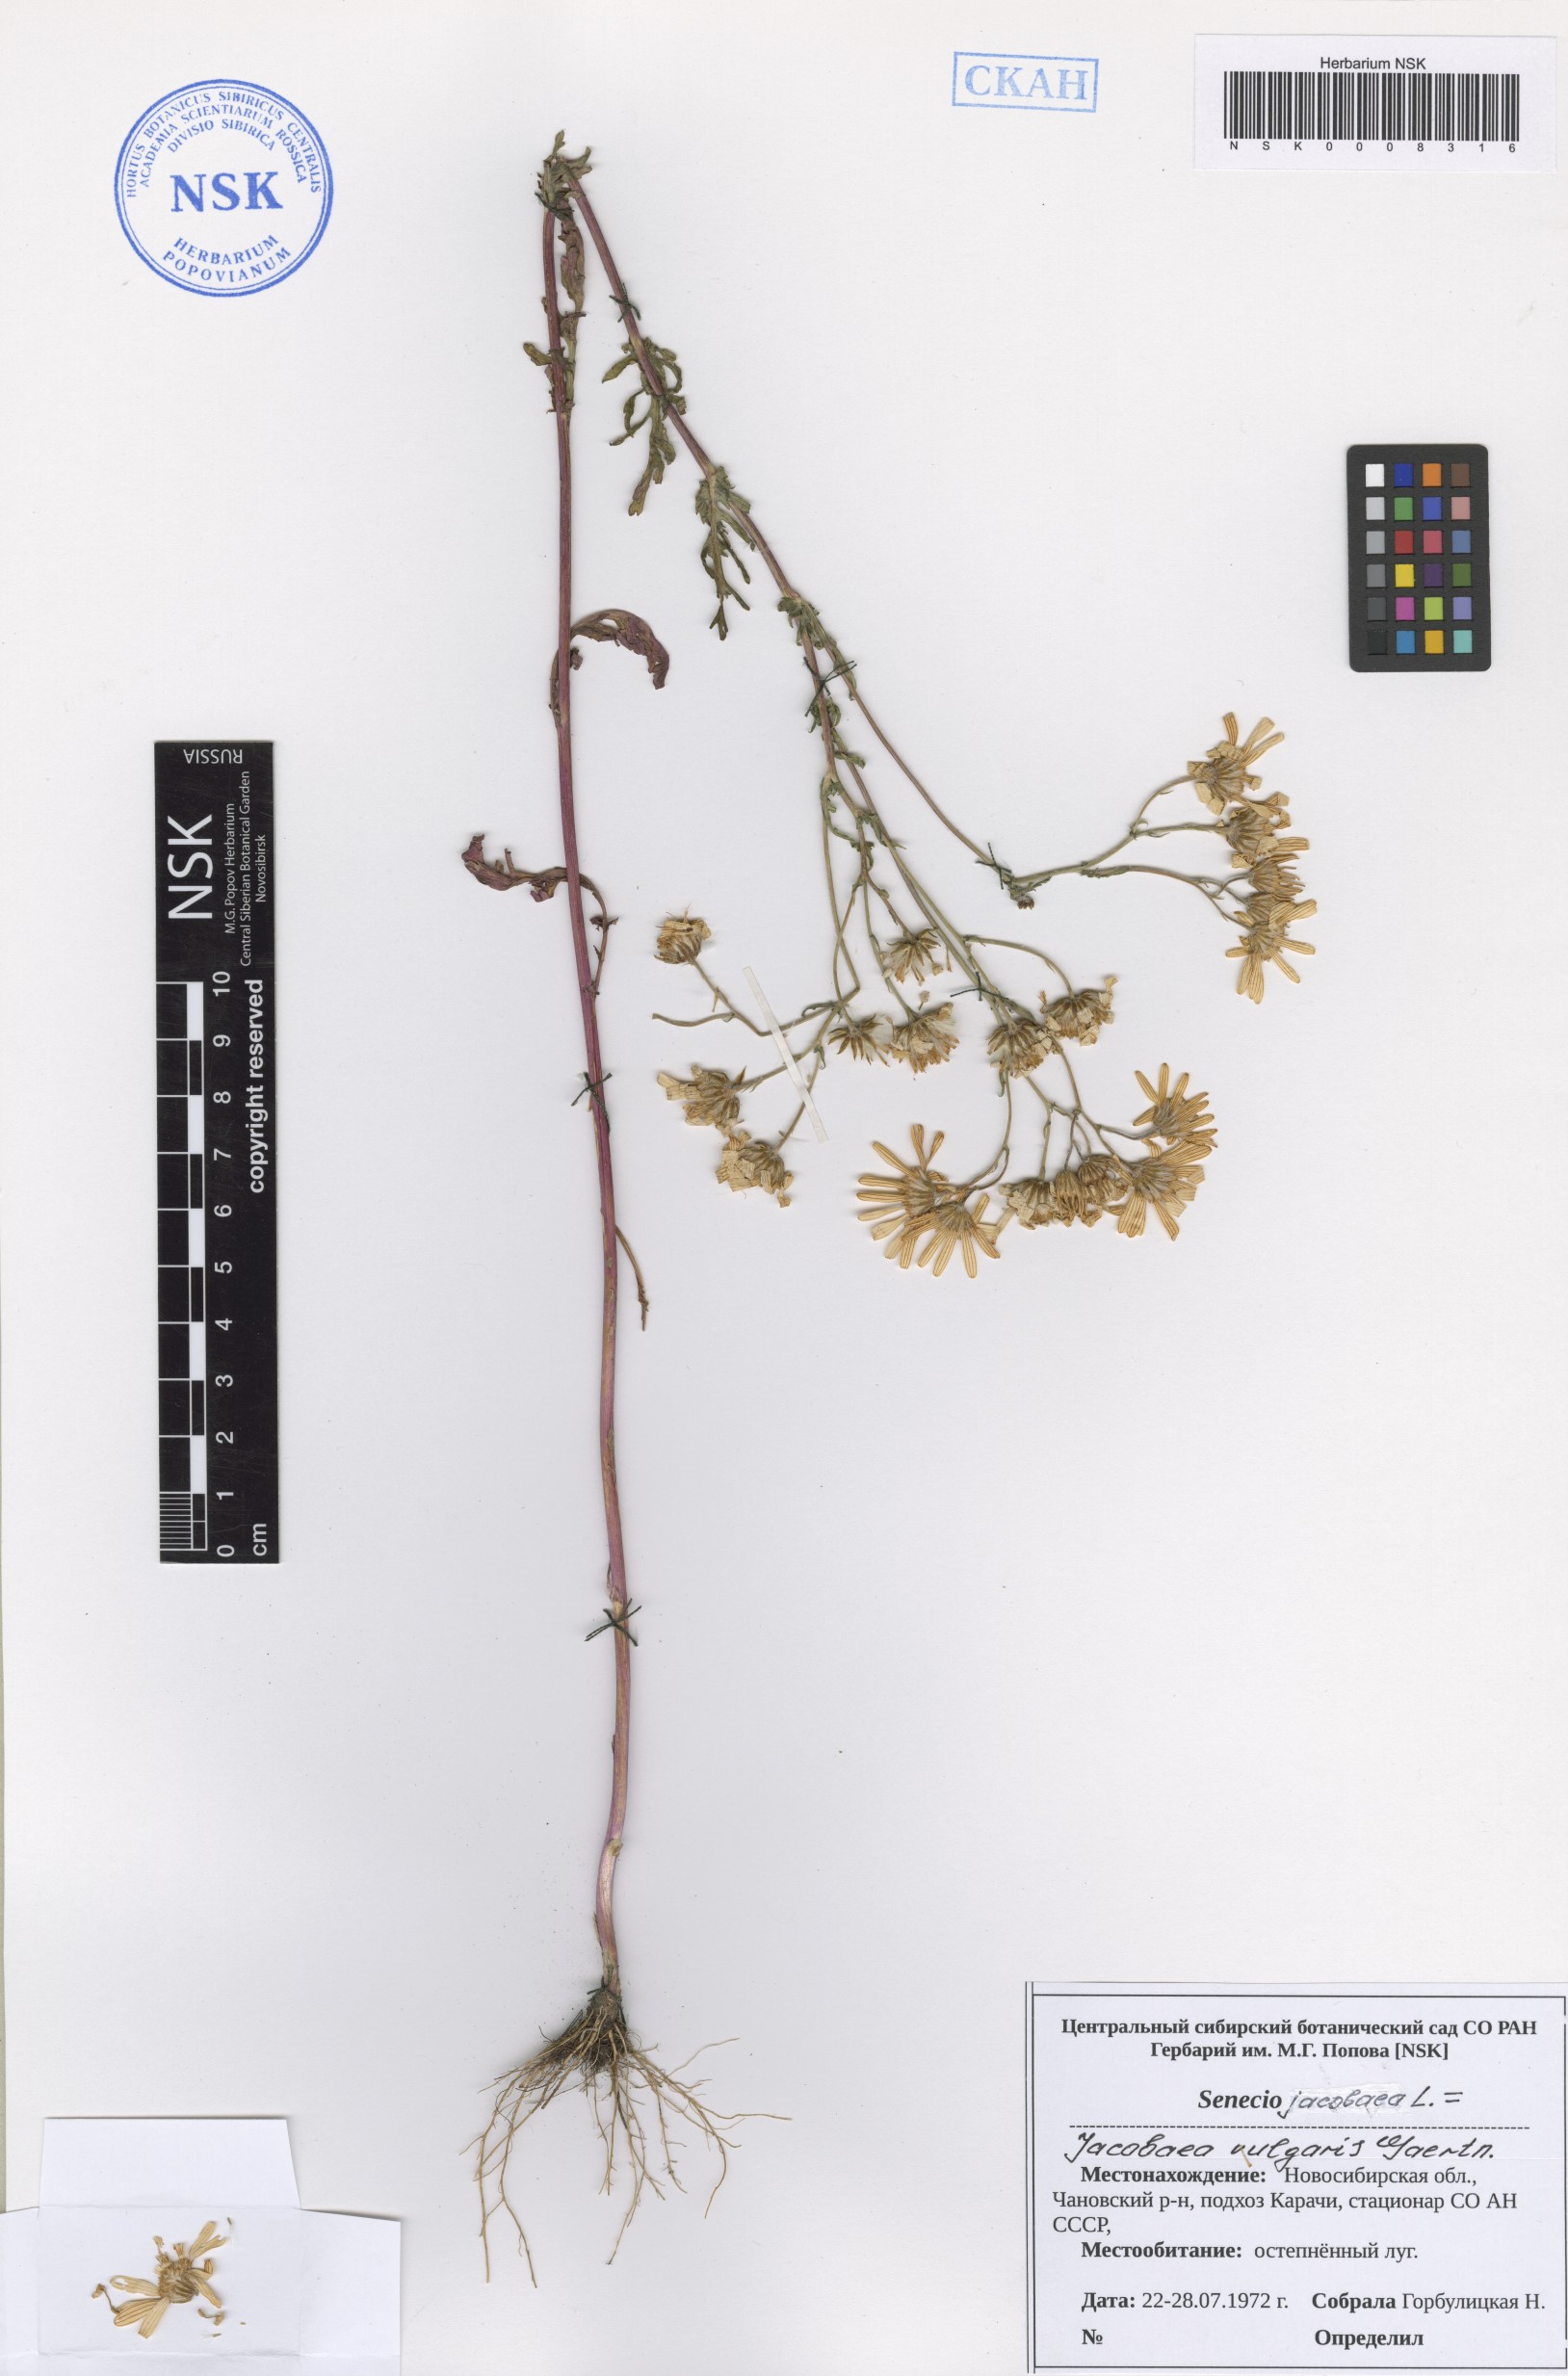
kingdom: Plantae
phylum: Tracheophyta
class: Magnoliopsida
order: Asterales
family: Asteraceae
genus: Jacobaea
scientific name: Jacobaea vulgaris
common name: Stinking willie
